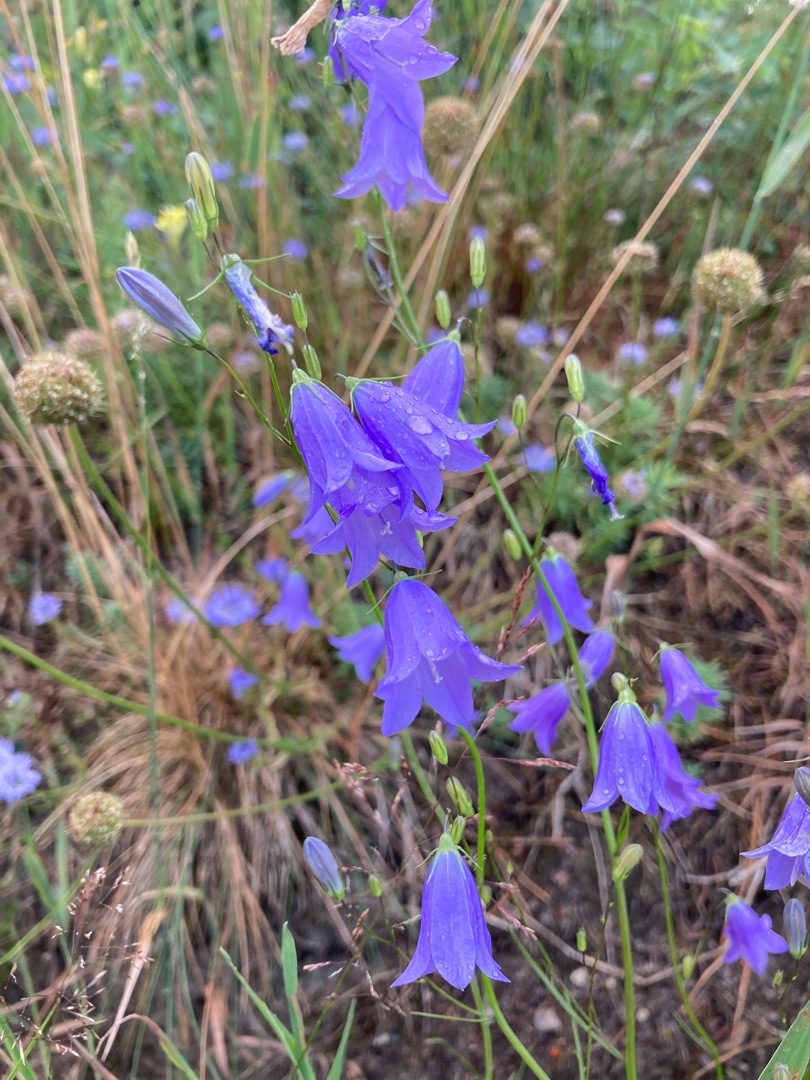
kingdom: Plantae
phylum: Tracheophyta
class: Magnoliopsida
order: Asterales
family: Campanulaceae
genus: Campanula
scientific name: Campanula rotundifolia
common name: Liden klokke
